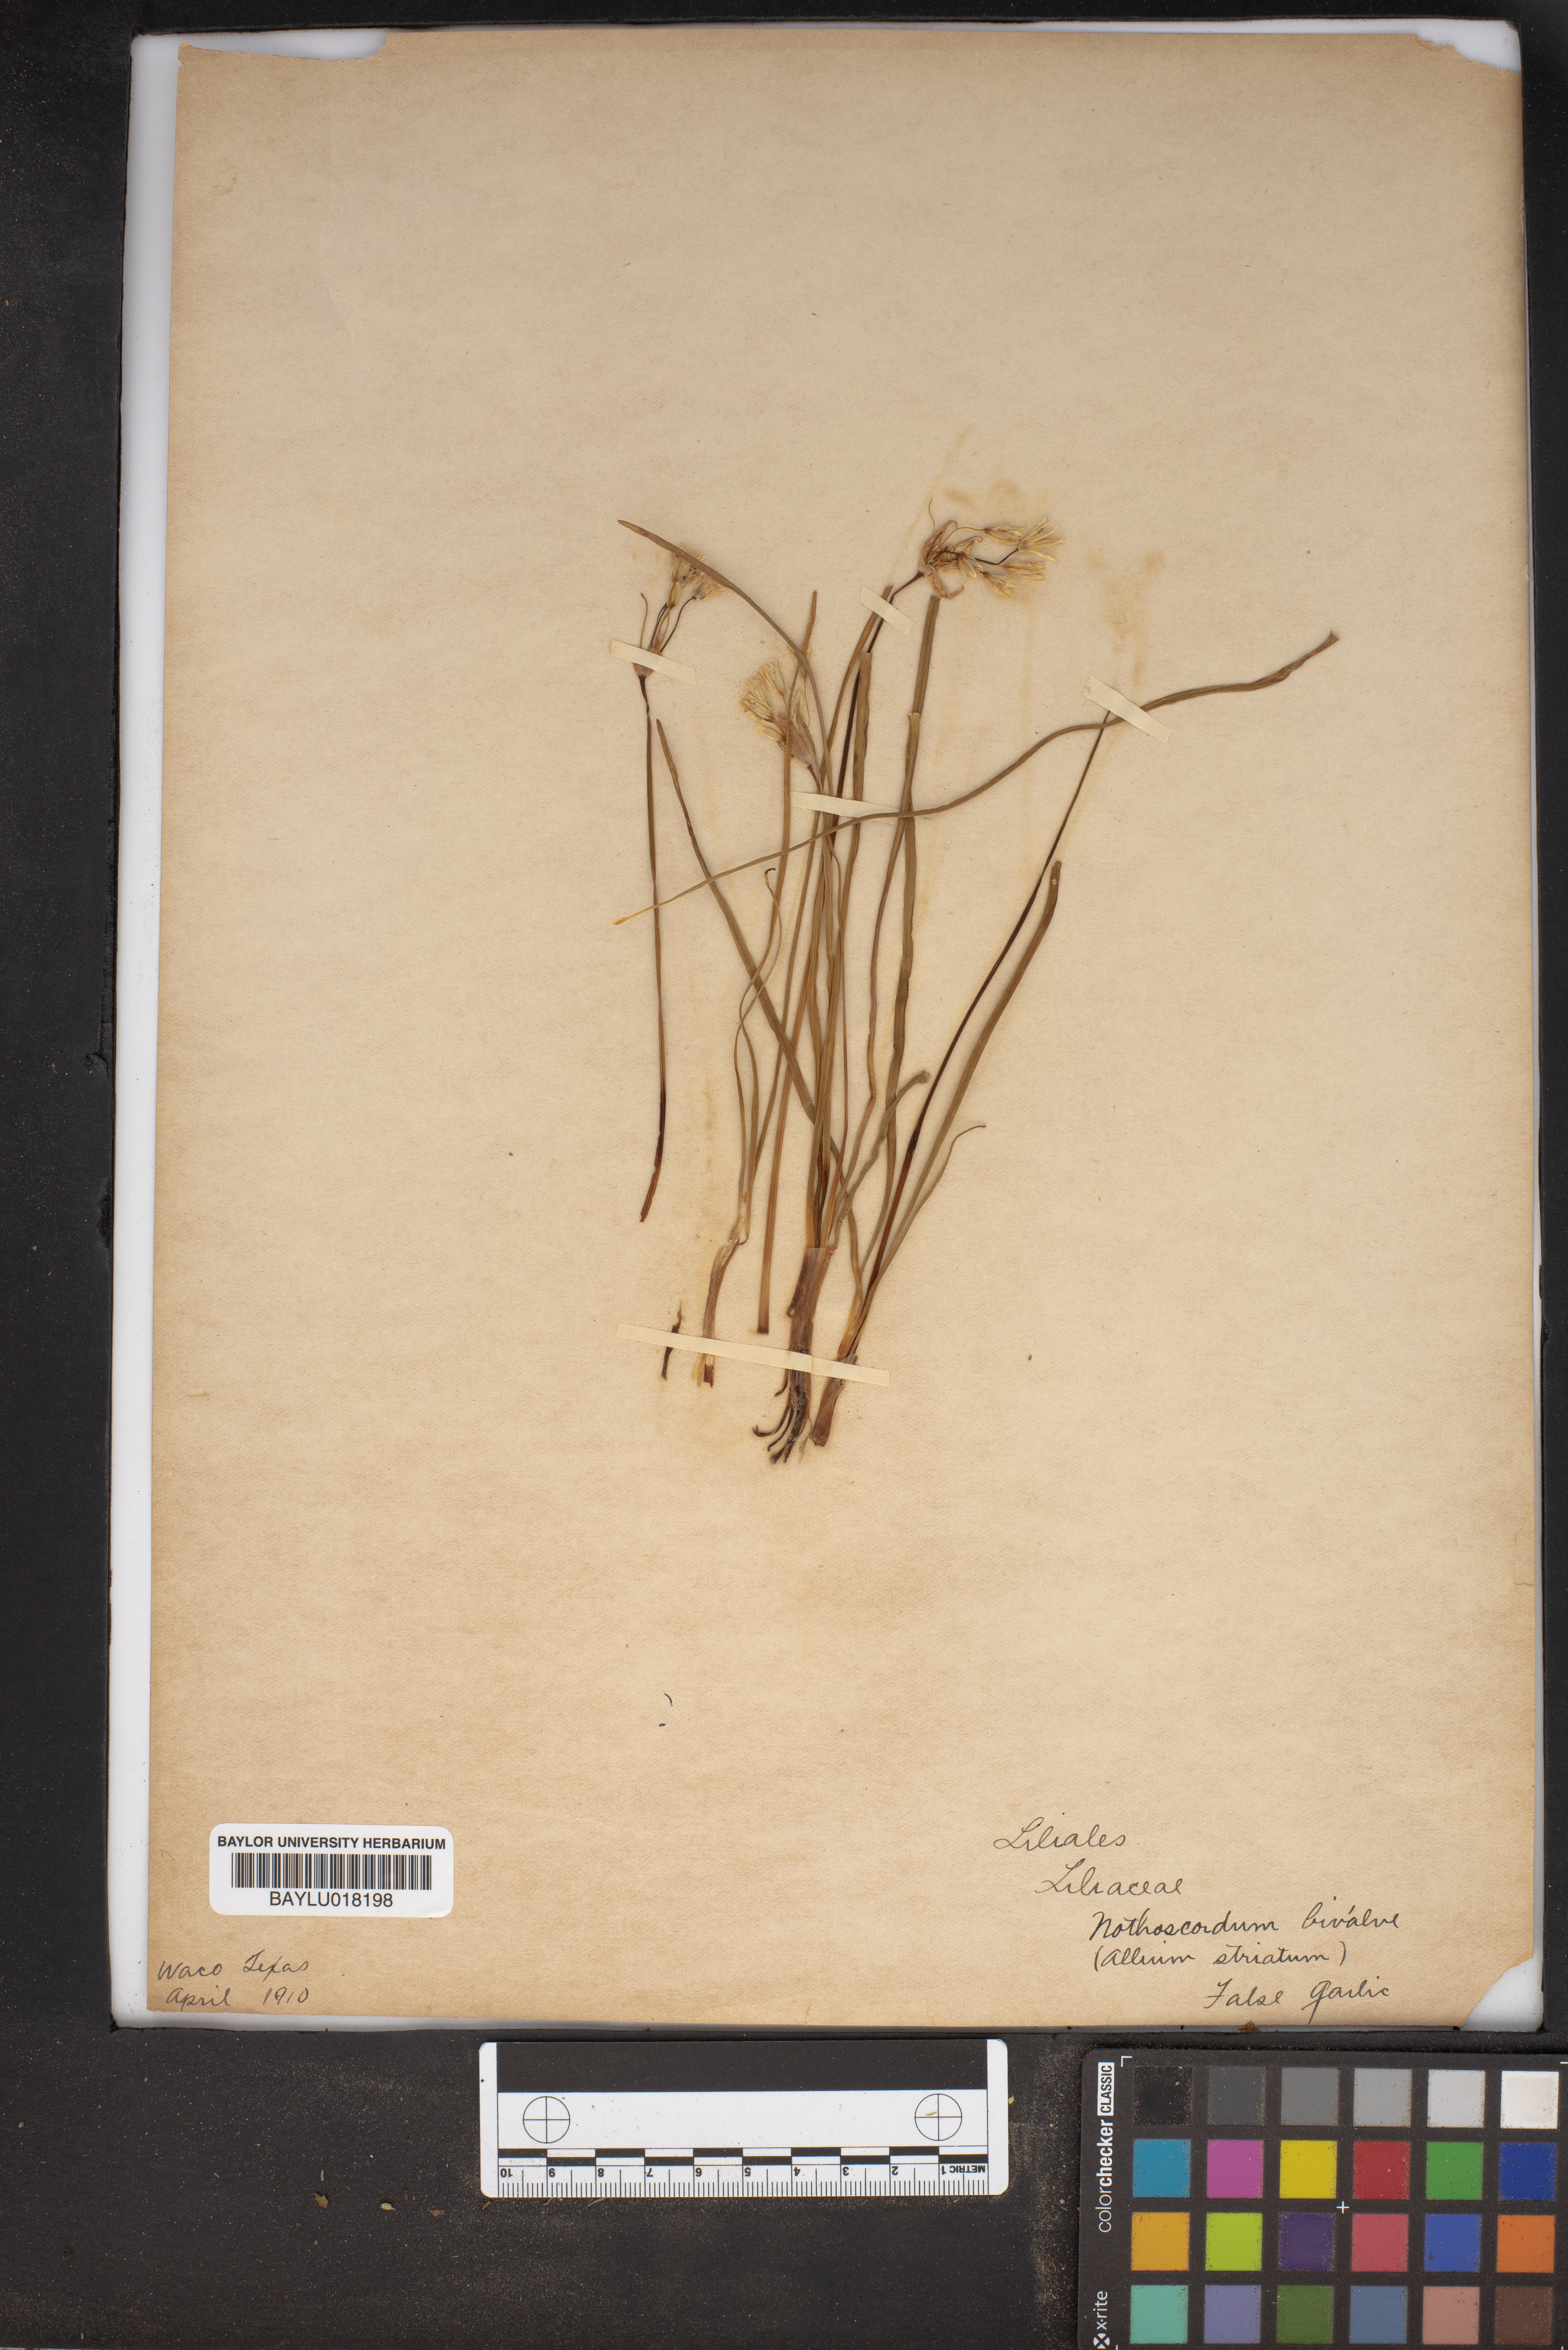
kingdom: Plantae
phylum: Tracheophyta
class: Liliopsida
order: Asparagales
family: Amaryllidaceae
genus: Nothoscordum
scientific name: Nothoscordum bivalve
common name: Crow-poison
